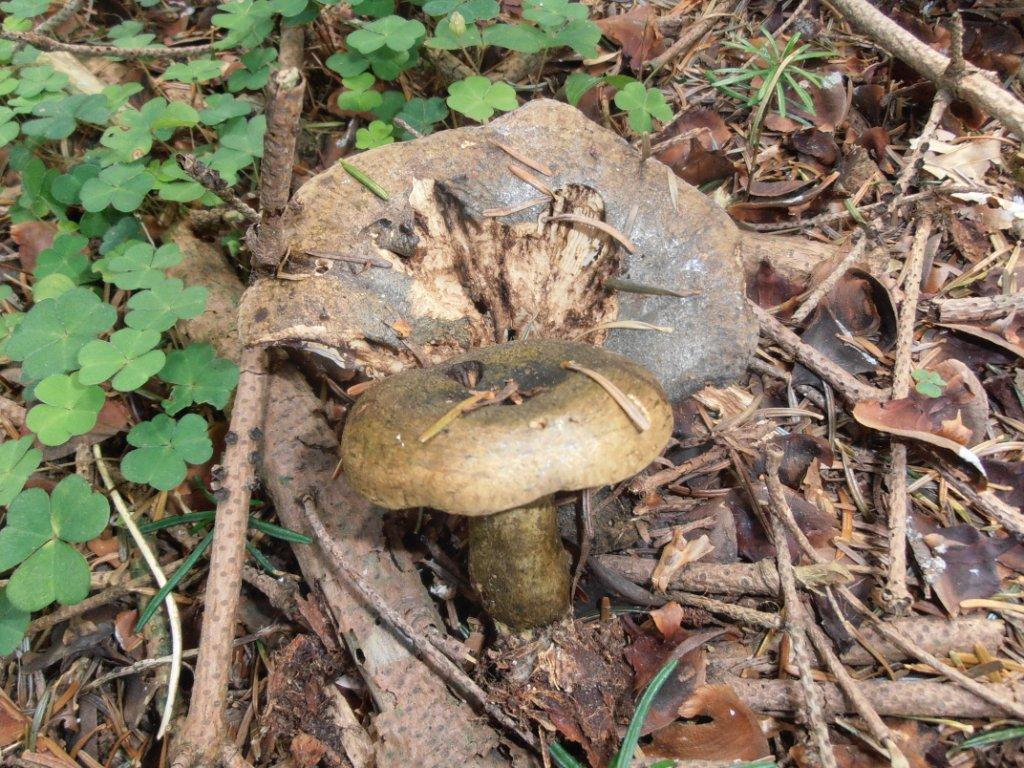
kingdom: Fungi
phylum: Basidiomycota
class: Agaricomycetes
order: Russulales
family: Russulaceae
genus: Lactarius
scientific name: Lactarius necator
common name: manddraber-mælkehat
